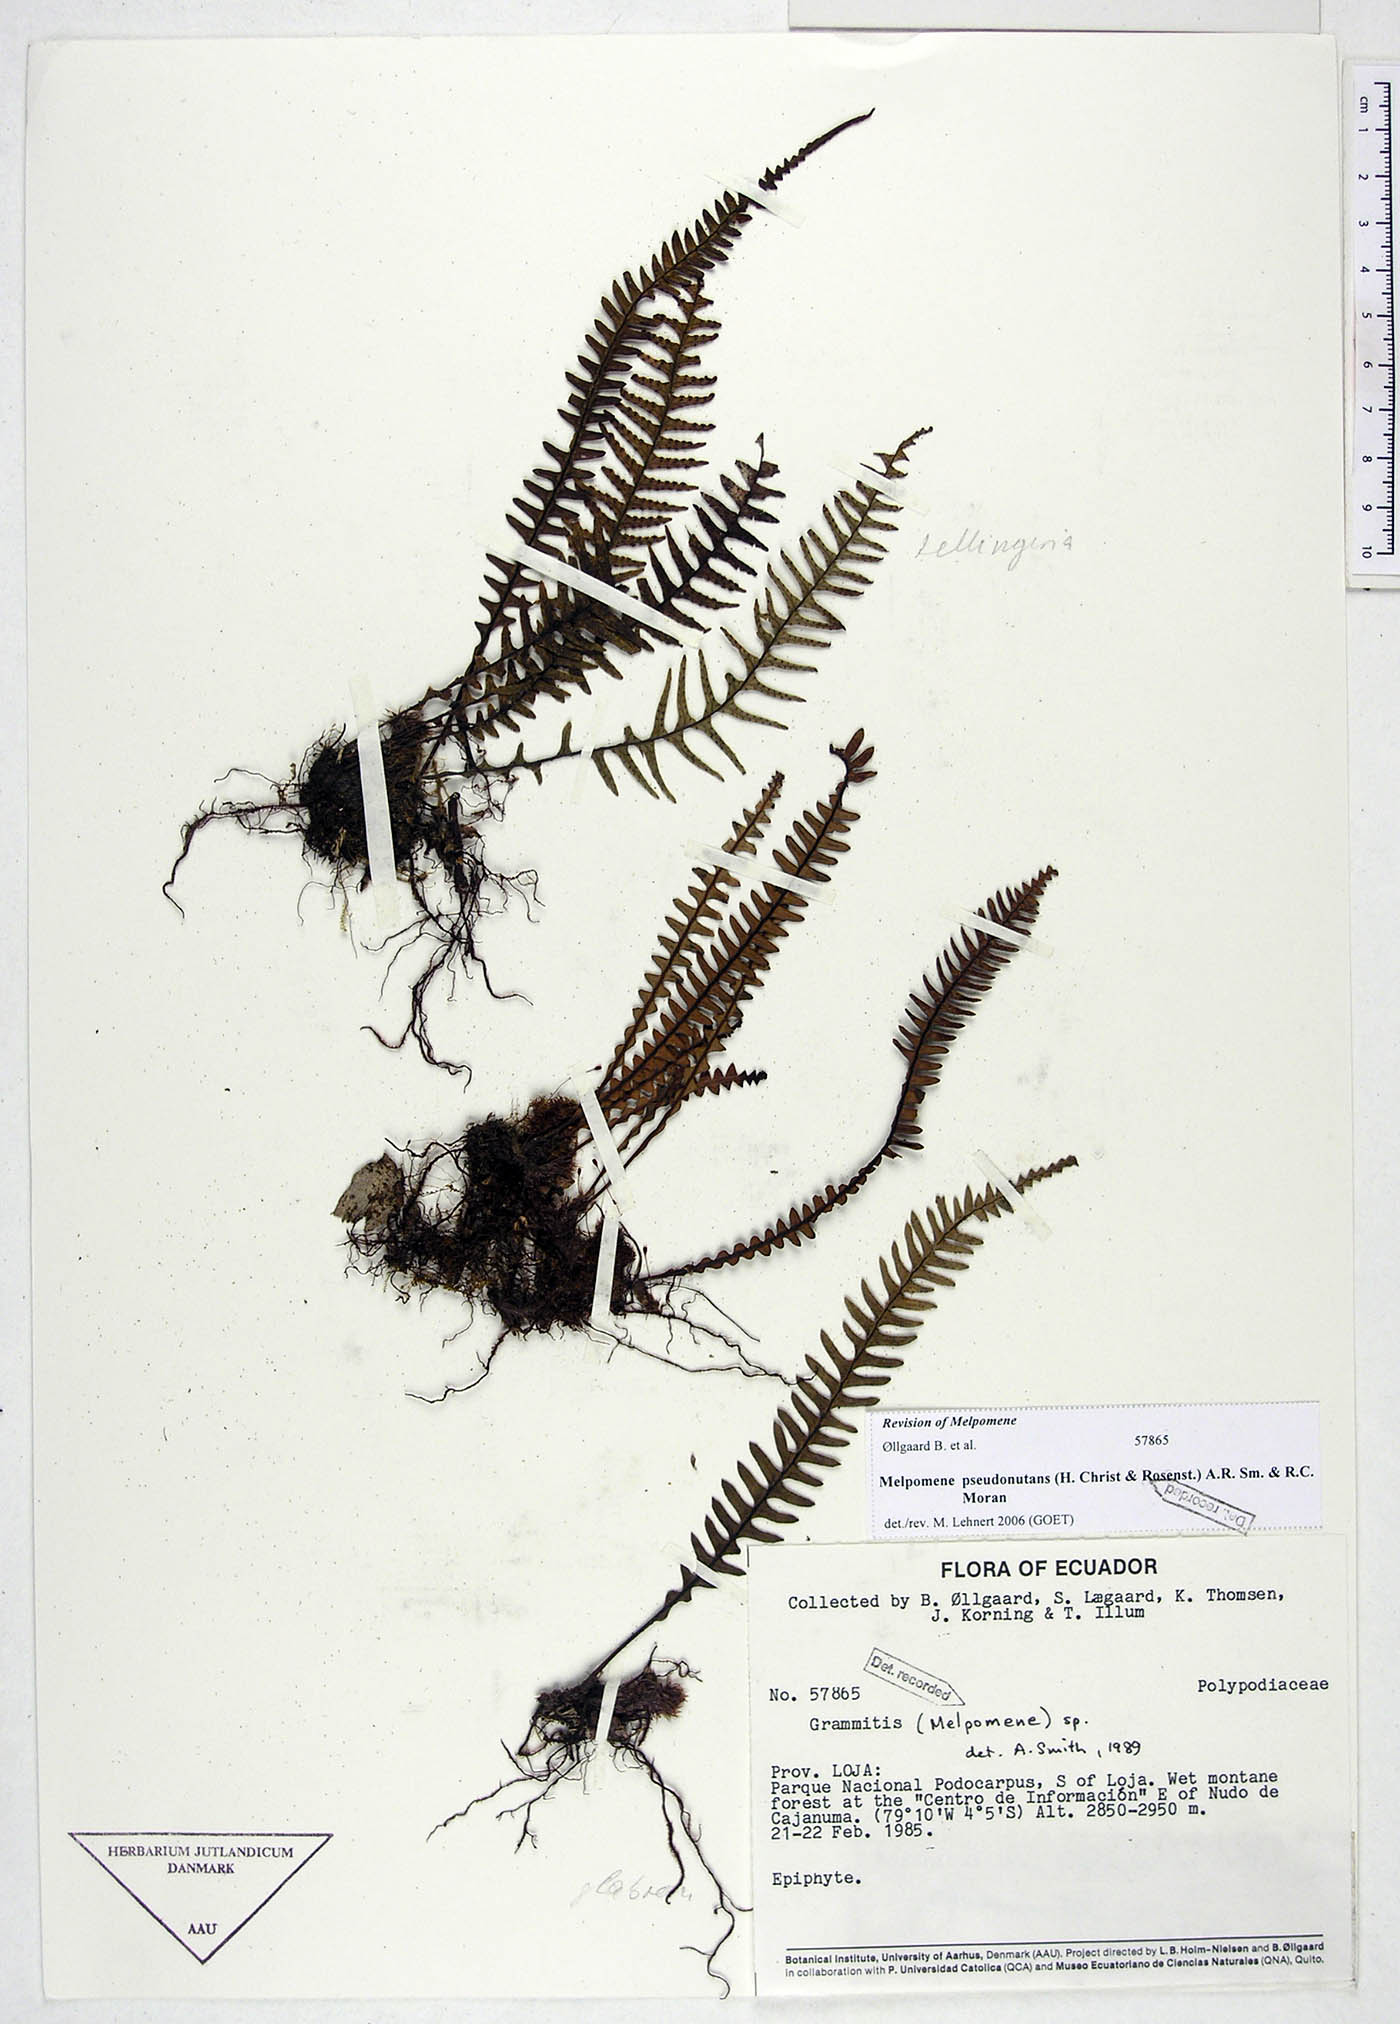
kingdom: Plantae
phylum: Tracheophyta
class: Polypodiopsida
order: Polypodiales
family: Polypodiaceae
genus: Melpomene
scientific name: Melpomene pseudonutans
